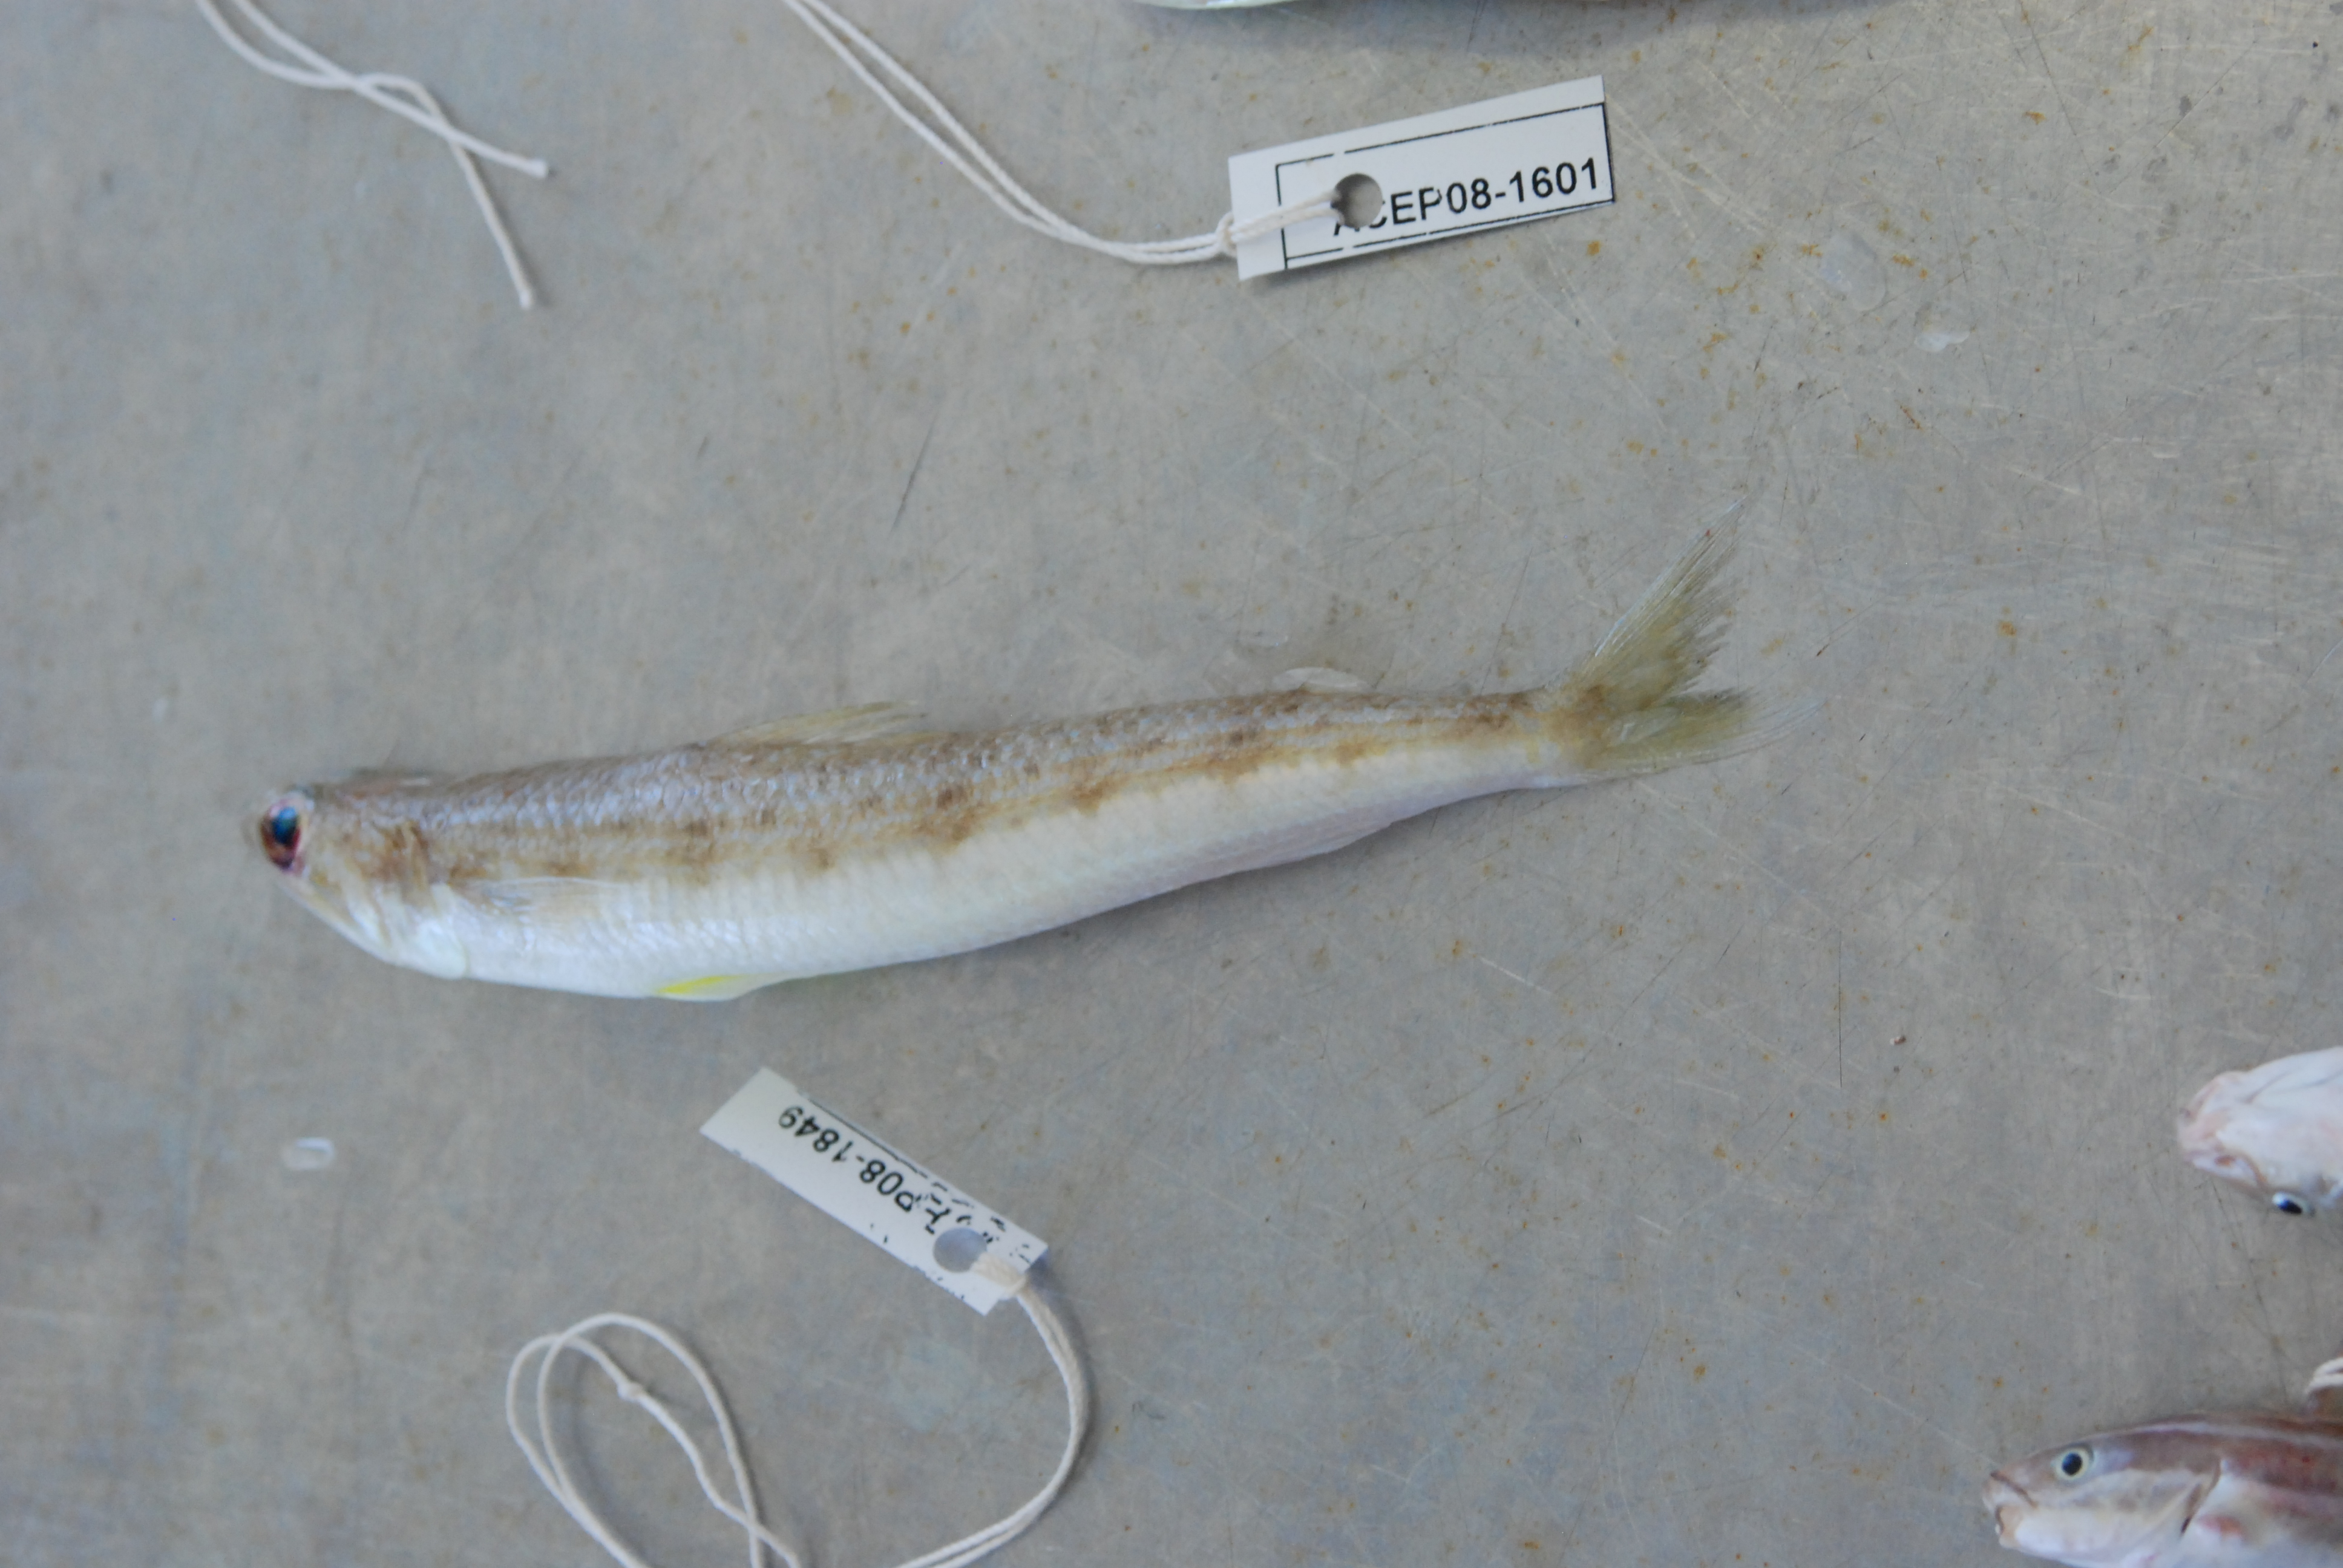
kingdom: Animalia
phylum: Chordata
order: Aulopiformes
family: Synodontidae
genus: Synodus
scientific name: Synodus
